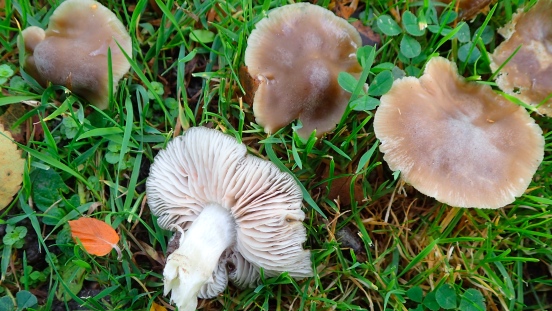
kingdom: Fungi
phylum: Basidiomycota
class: Agaricomycetes
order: Agaricales
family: Entolomataceae
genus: Entoloma
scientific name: Entoloma lividoalbum
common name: lysstokket rødblad
